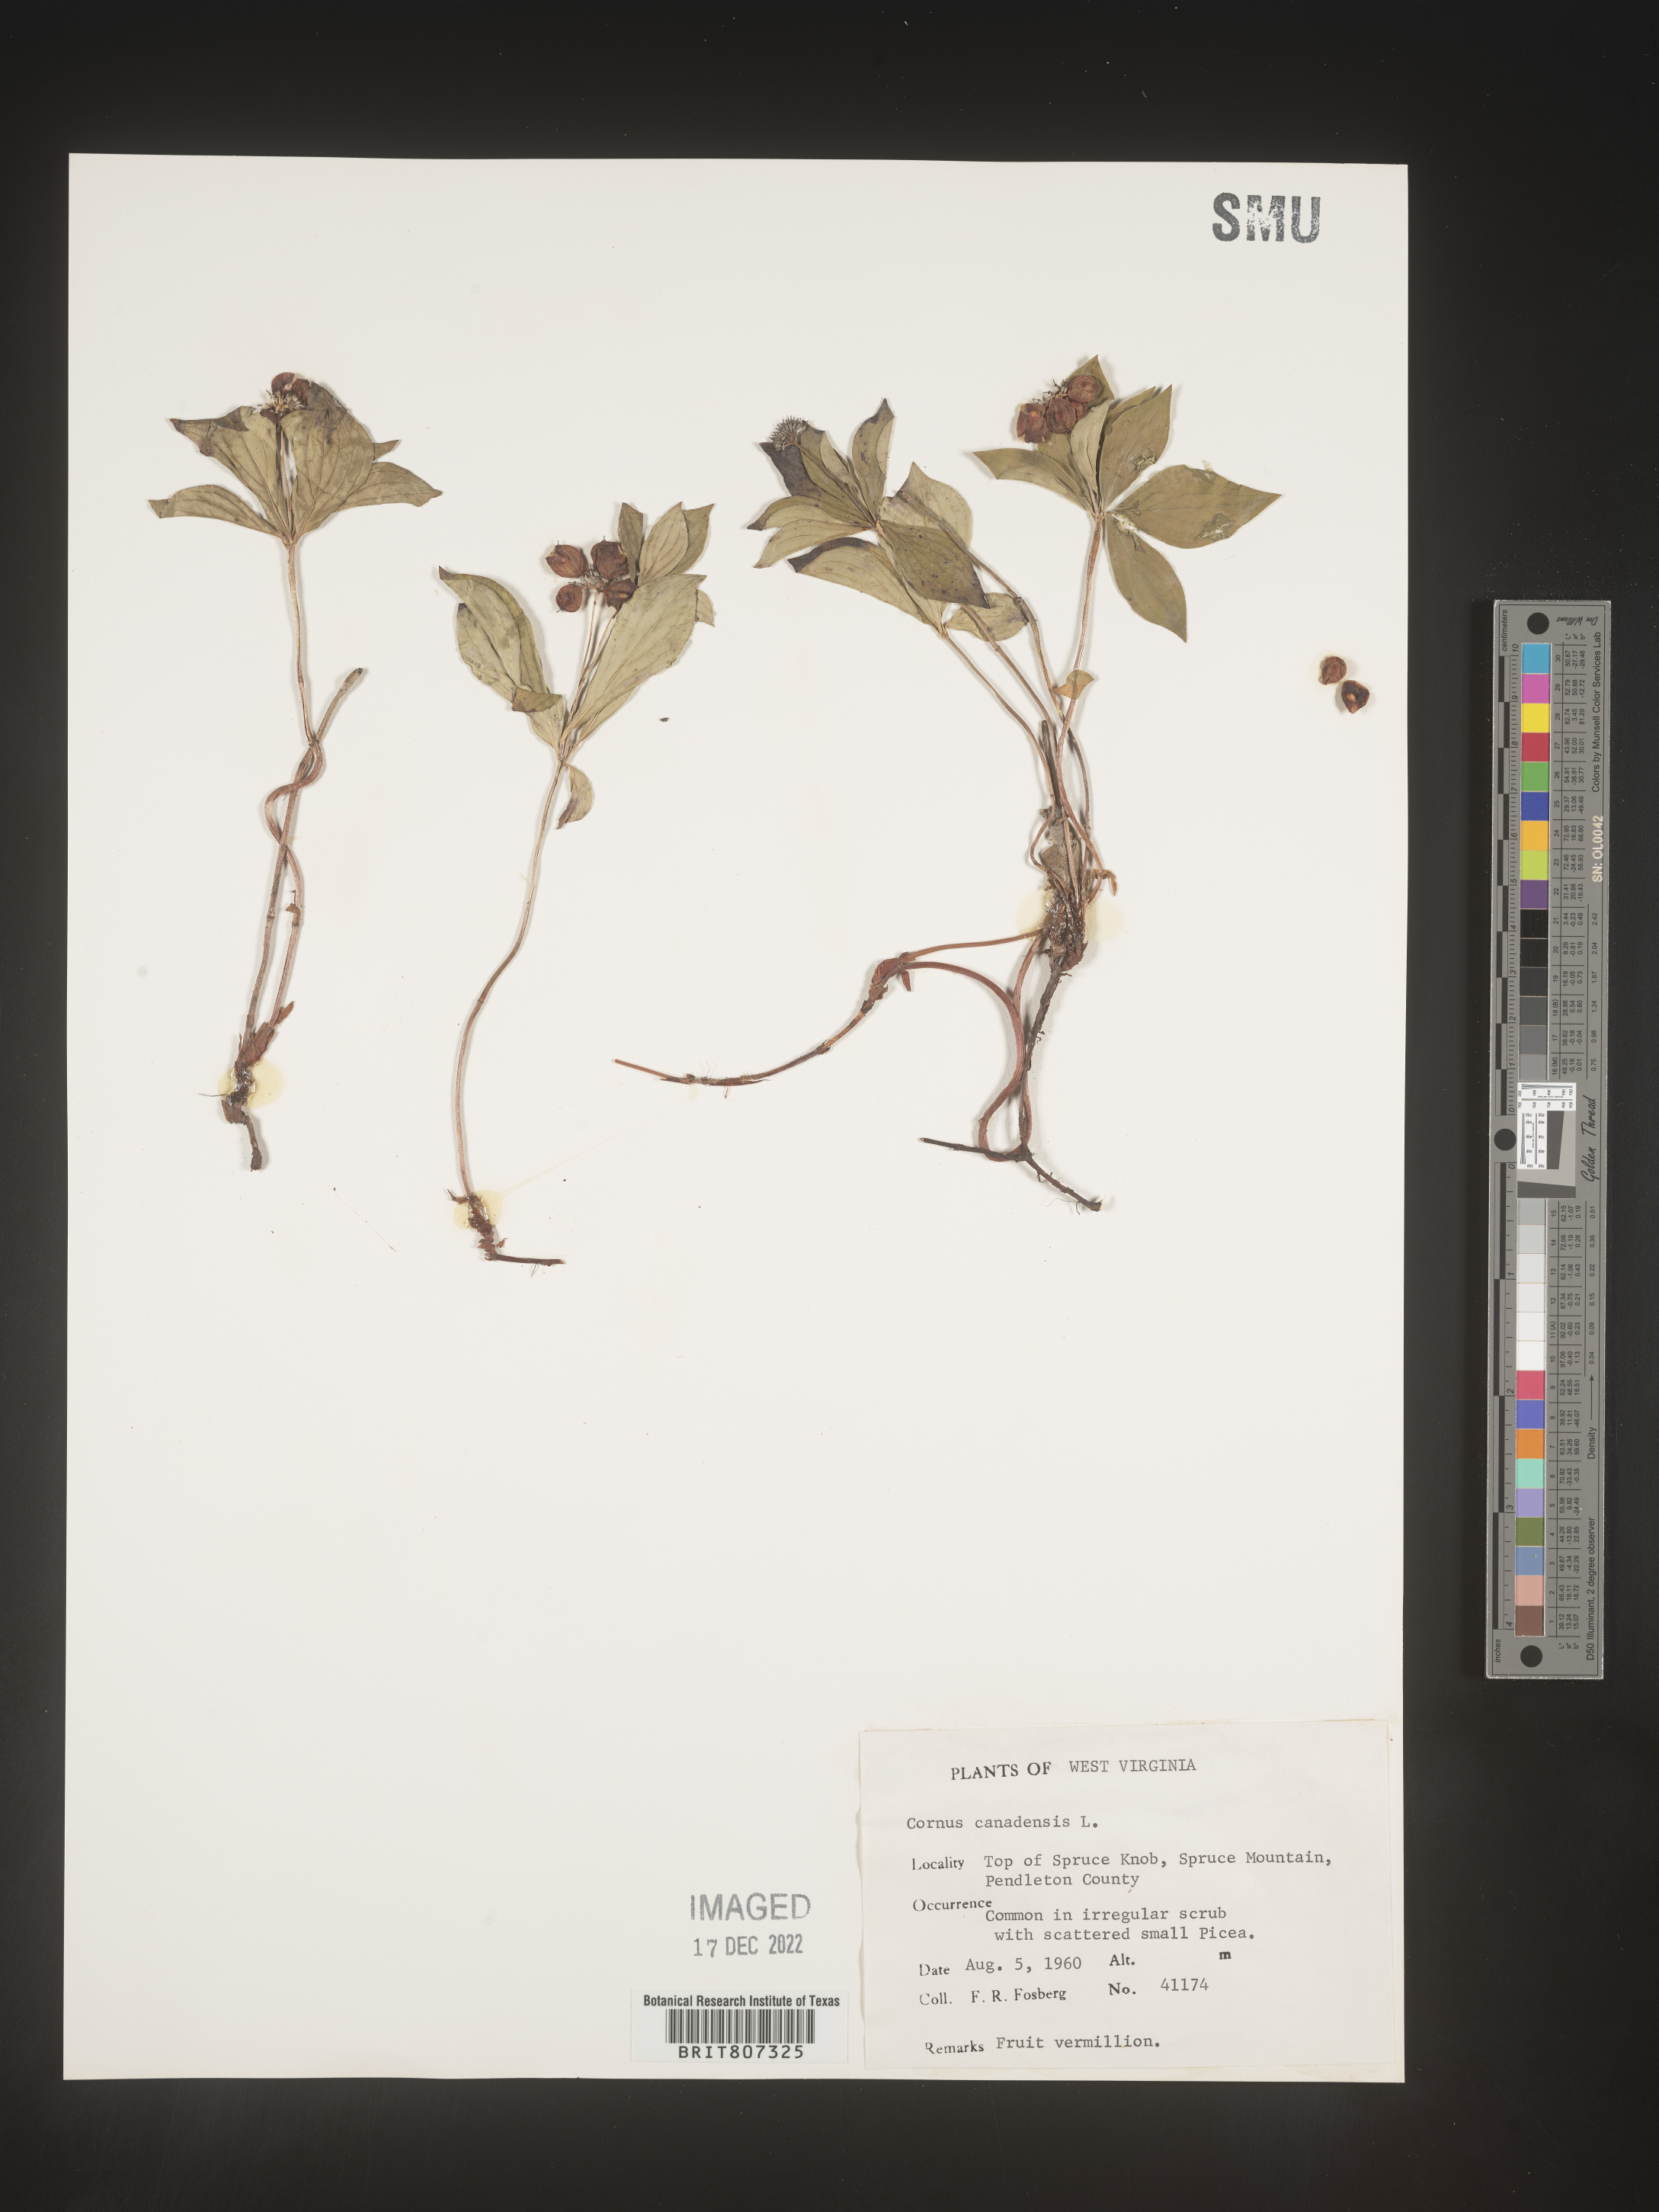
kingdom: Plantae
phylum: Tracheophyta
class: Magnoliopsida
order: Cornales
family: Cornaceae
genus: Cornus
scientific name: Cornus canadensis
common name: Creeping dogwood
